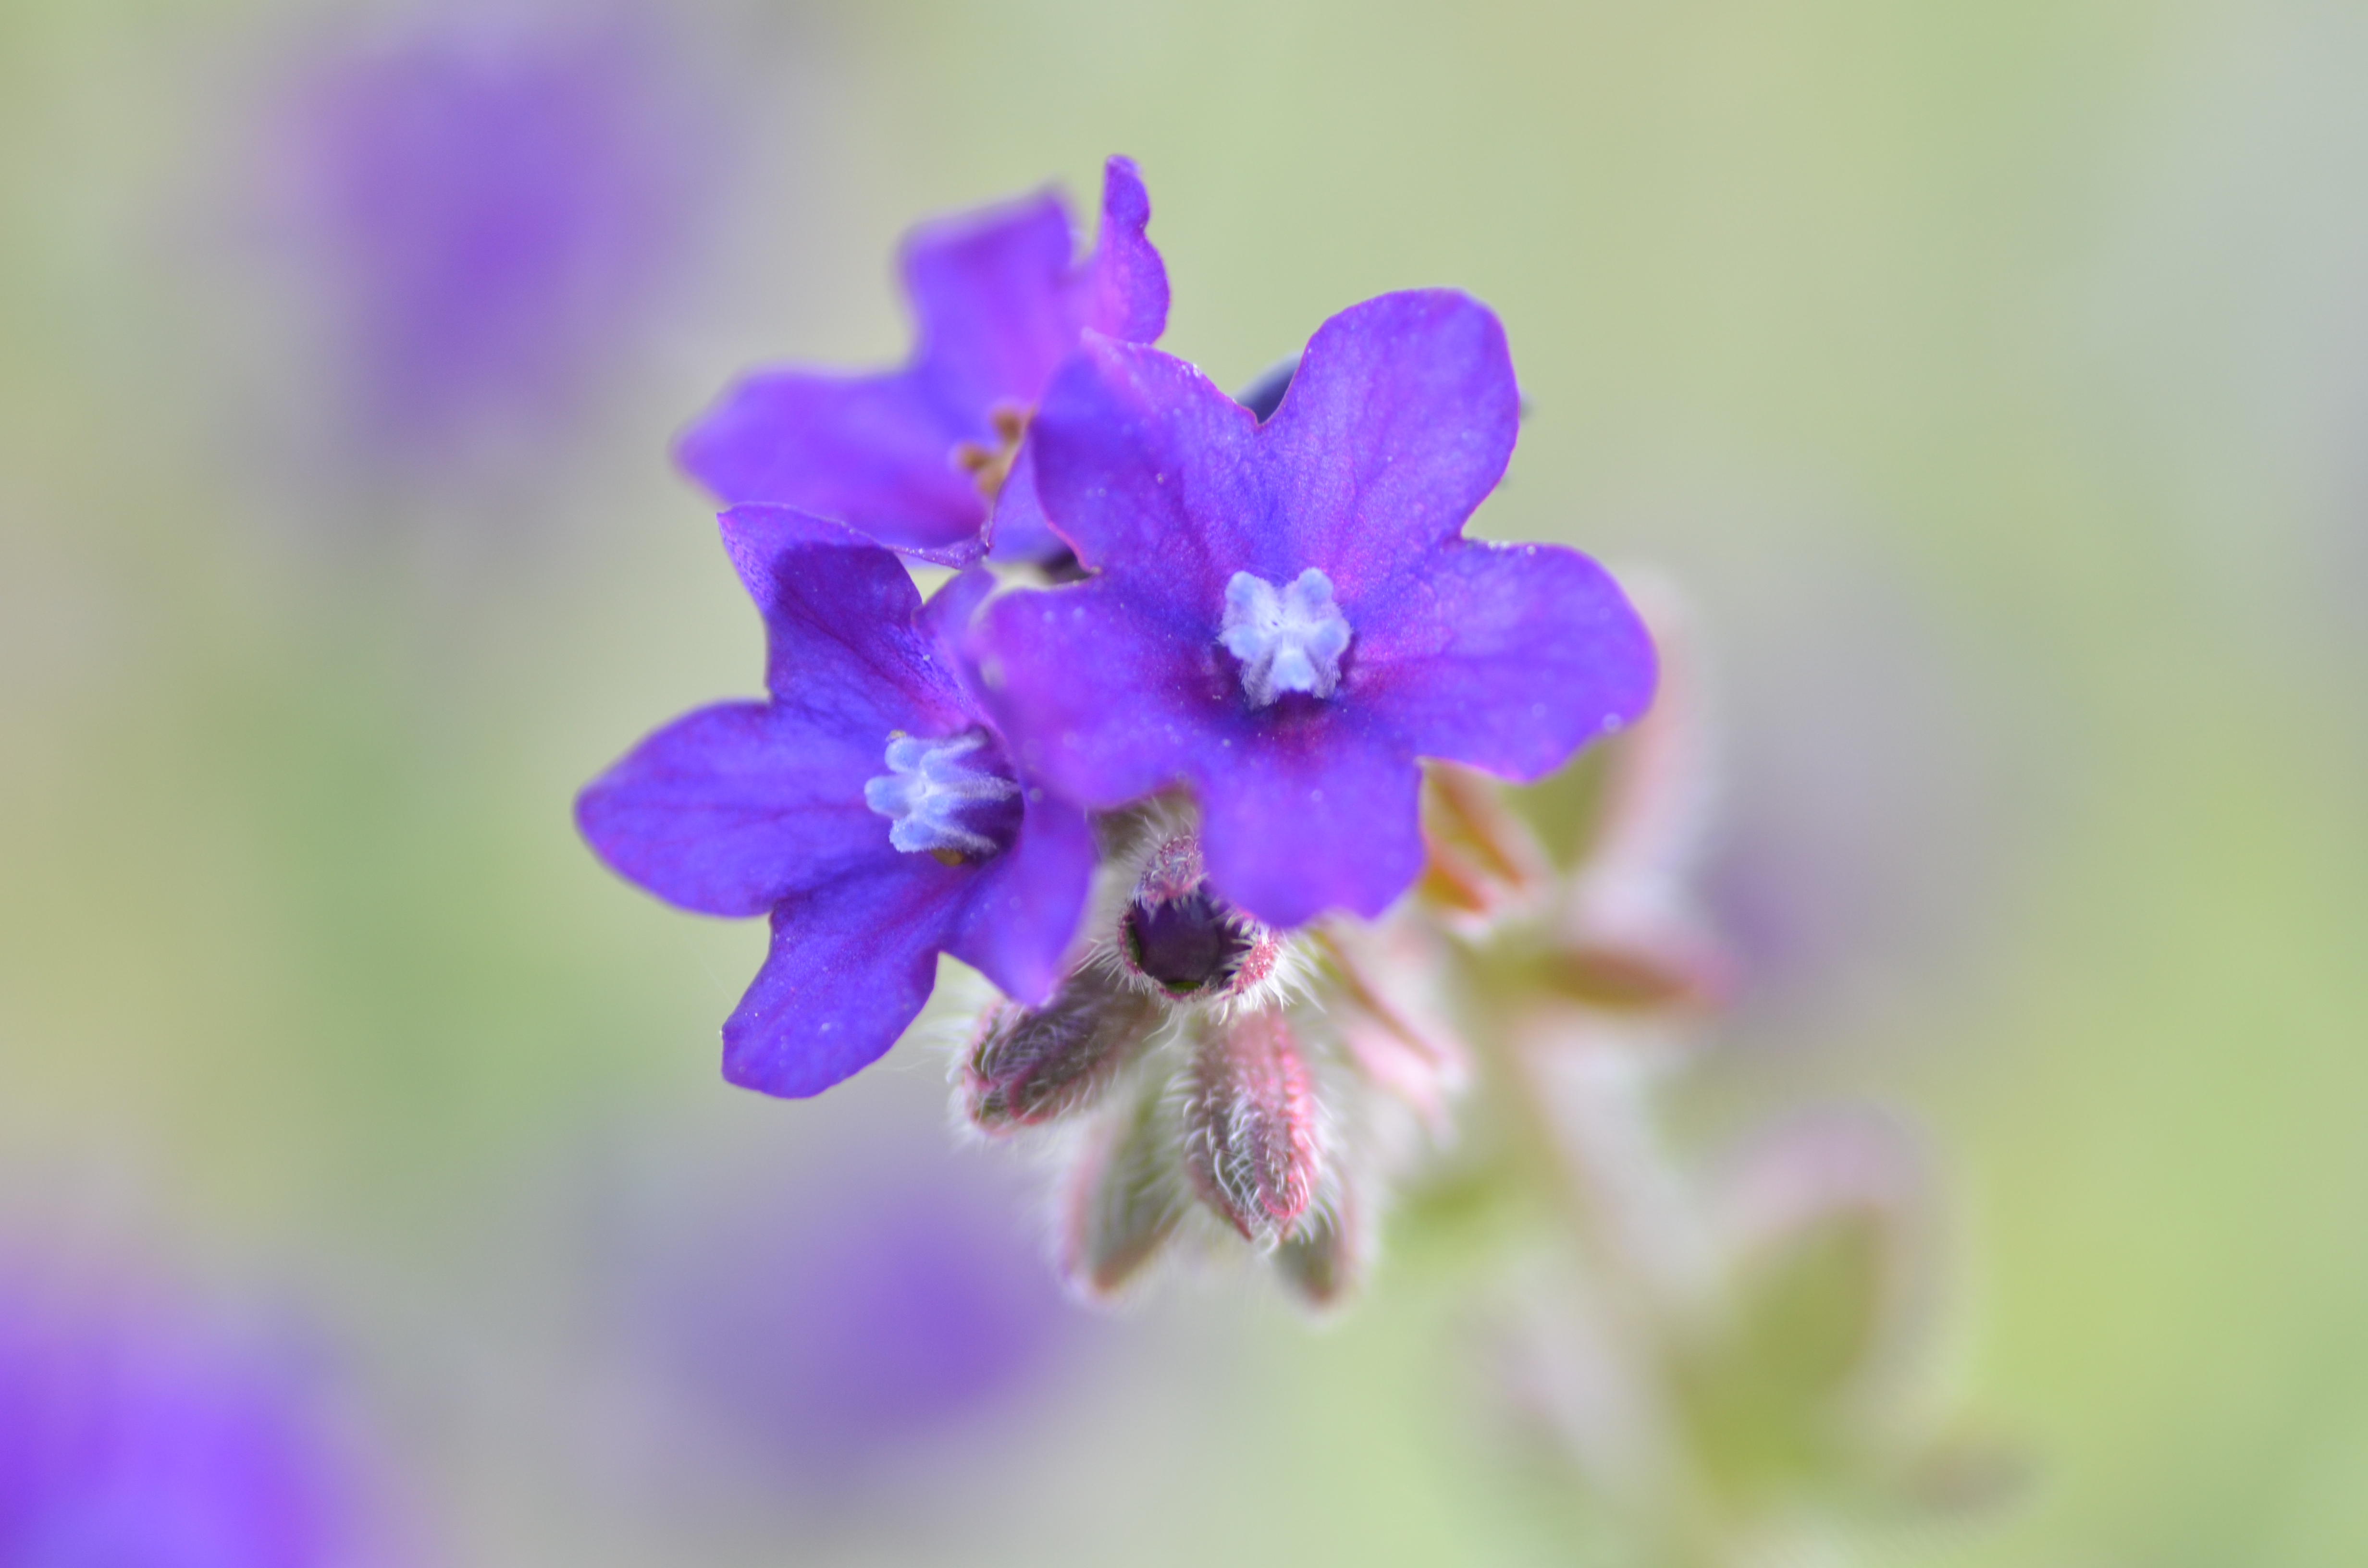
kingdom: Plantae
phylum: Tracheophyta
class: Magnoliopsida
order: Boraginales
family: Boraginaceae
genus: Anchusa
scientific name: Anchusa officinalis
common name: Alkanet
